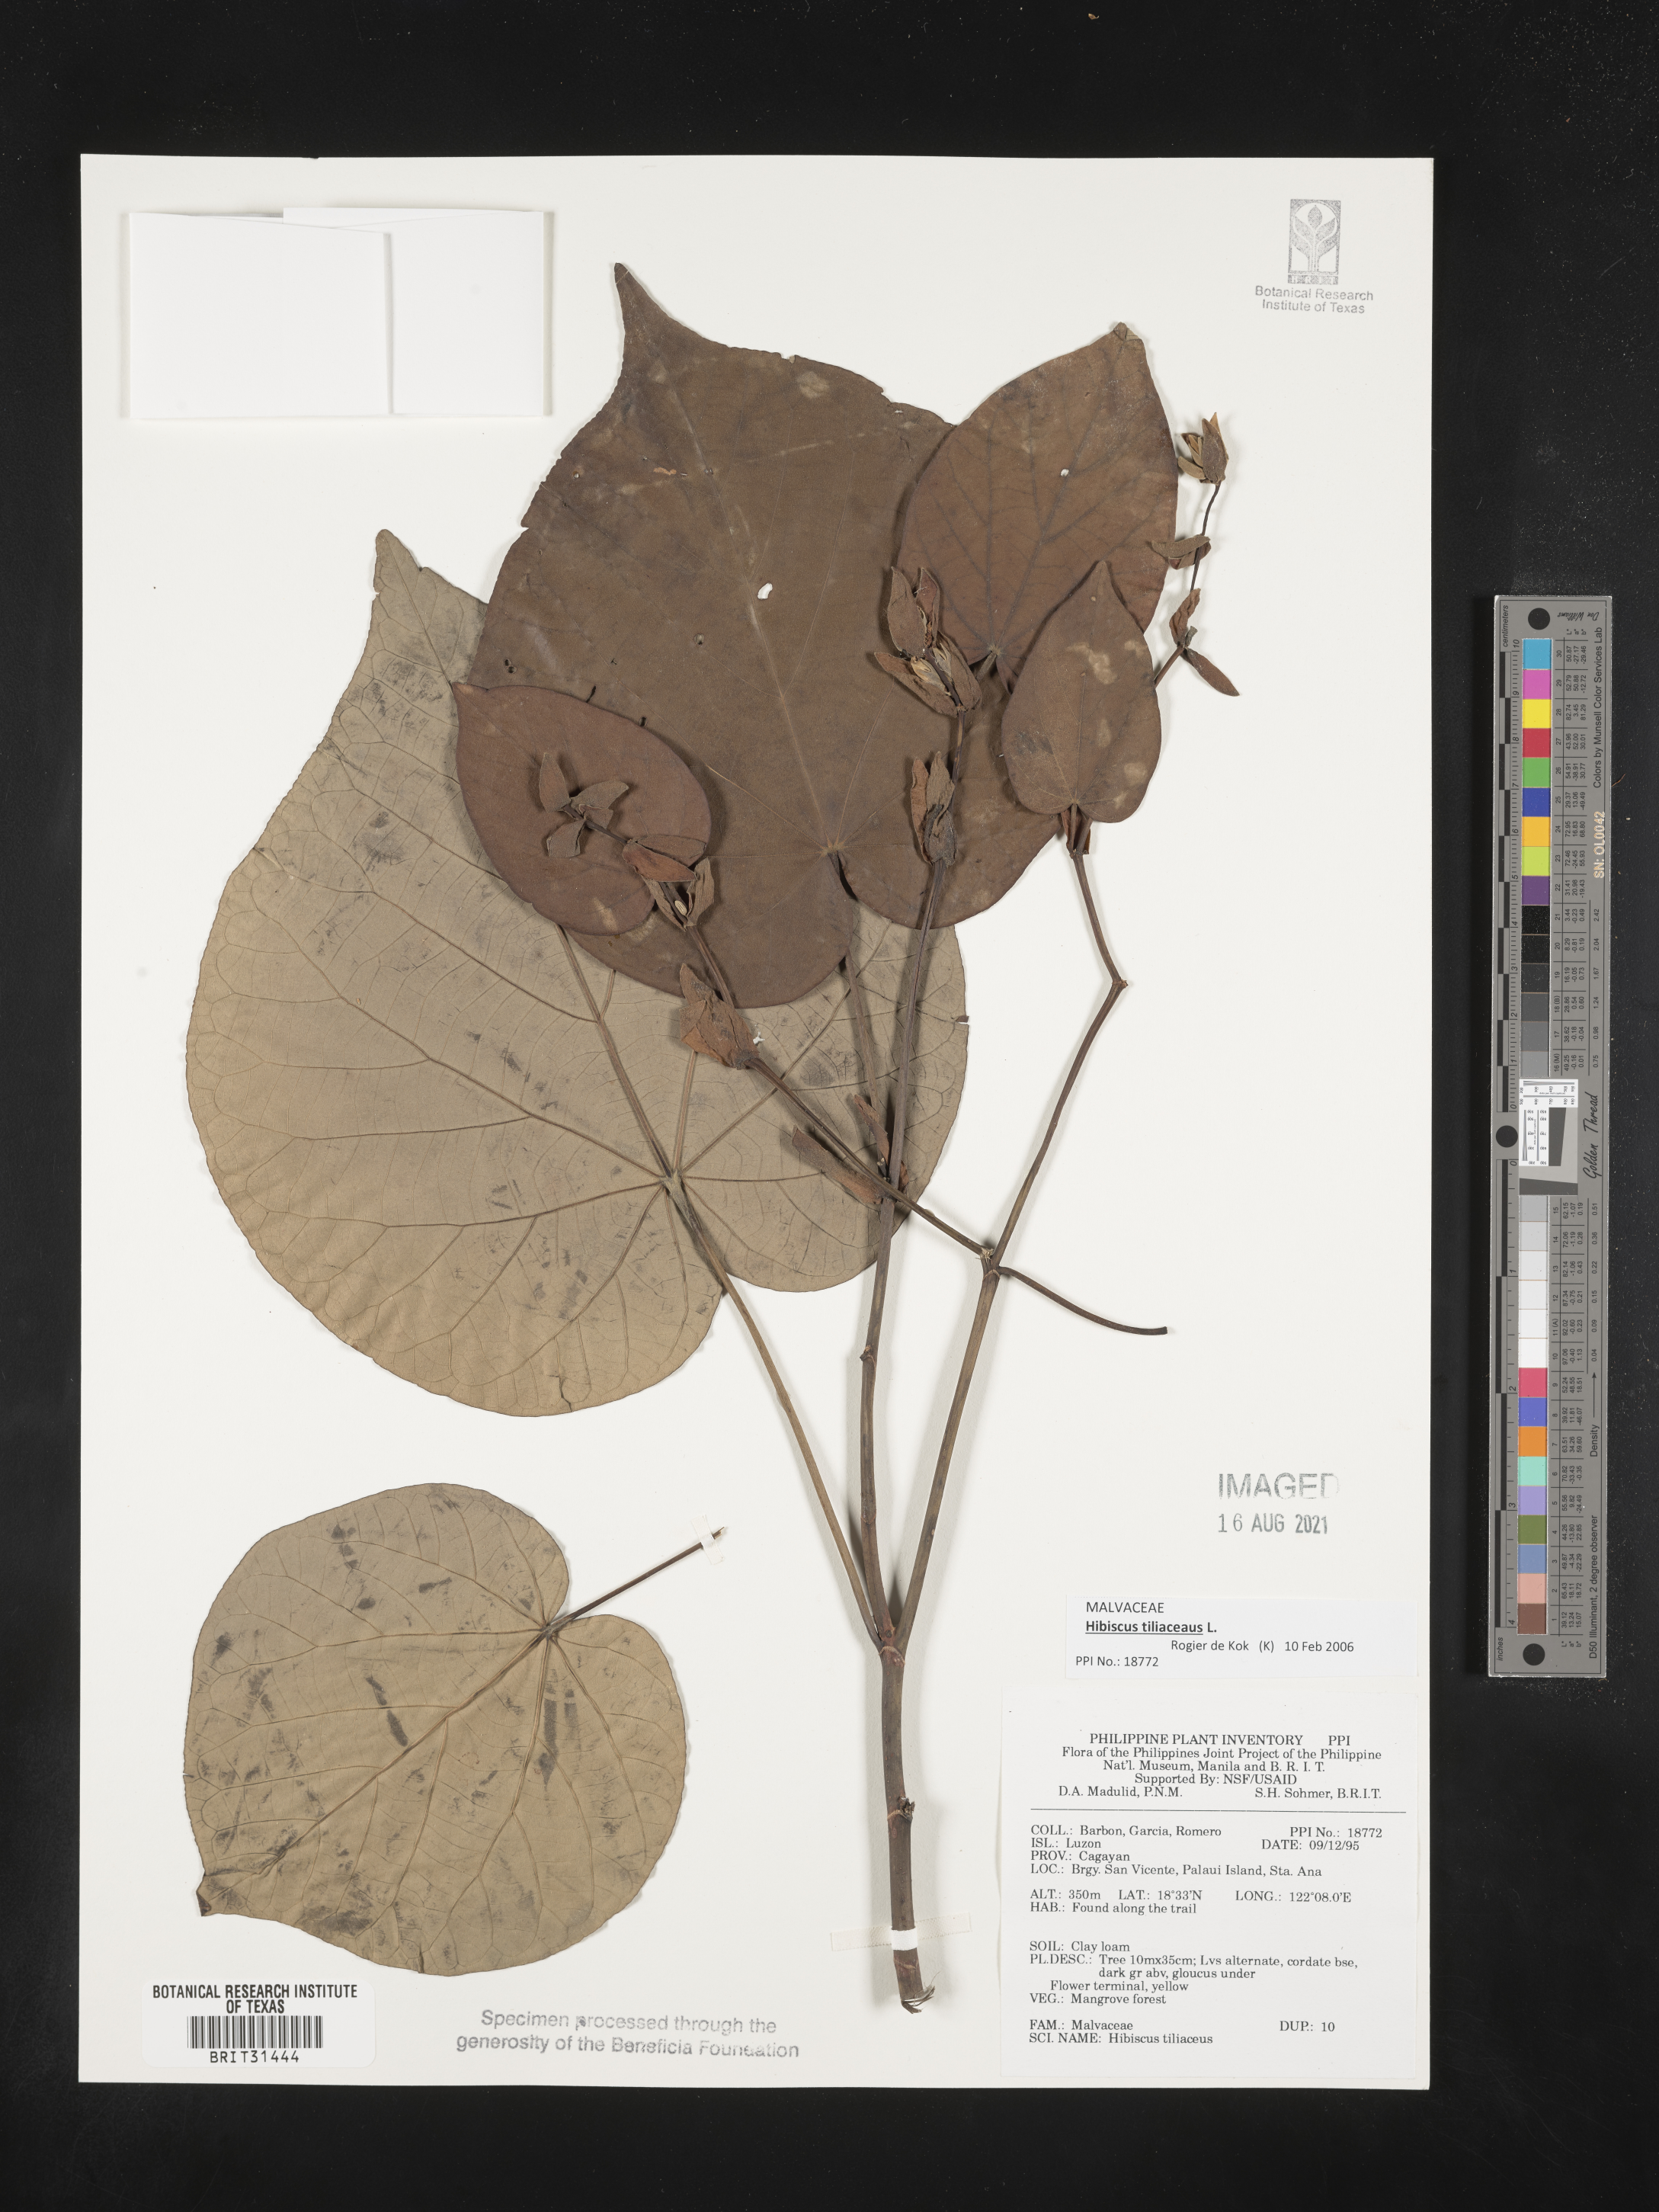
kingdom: Plantae
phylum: Tracheophyta
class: Magnoliopsida
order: Malvales
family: Malvaceae
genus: Talipariti
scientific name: Talipariti tiliaceum
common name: Sea hibiscus
